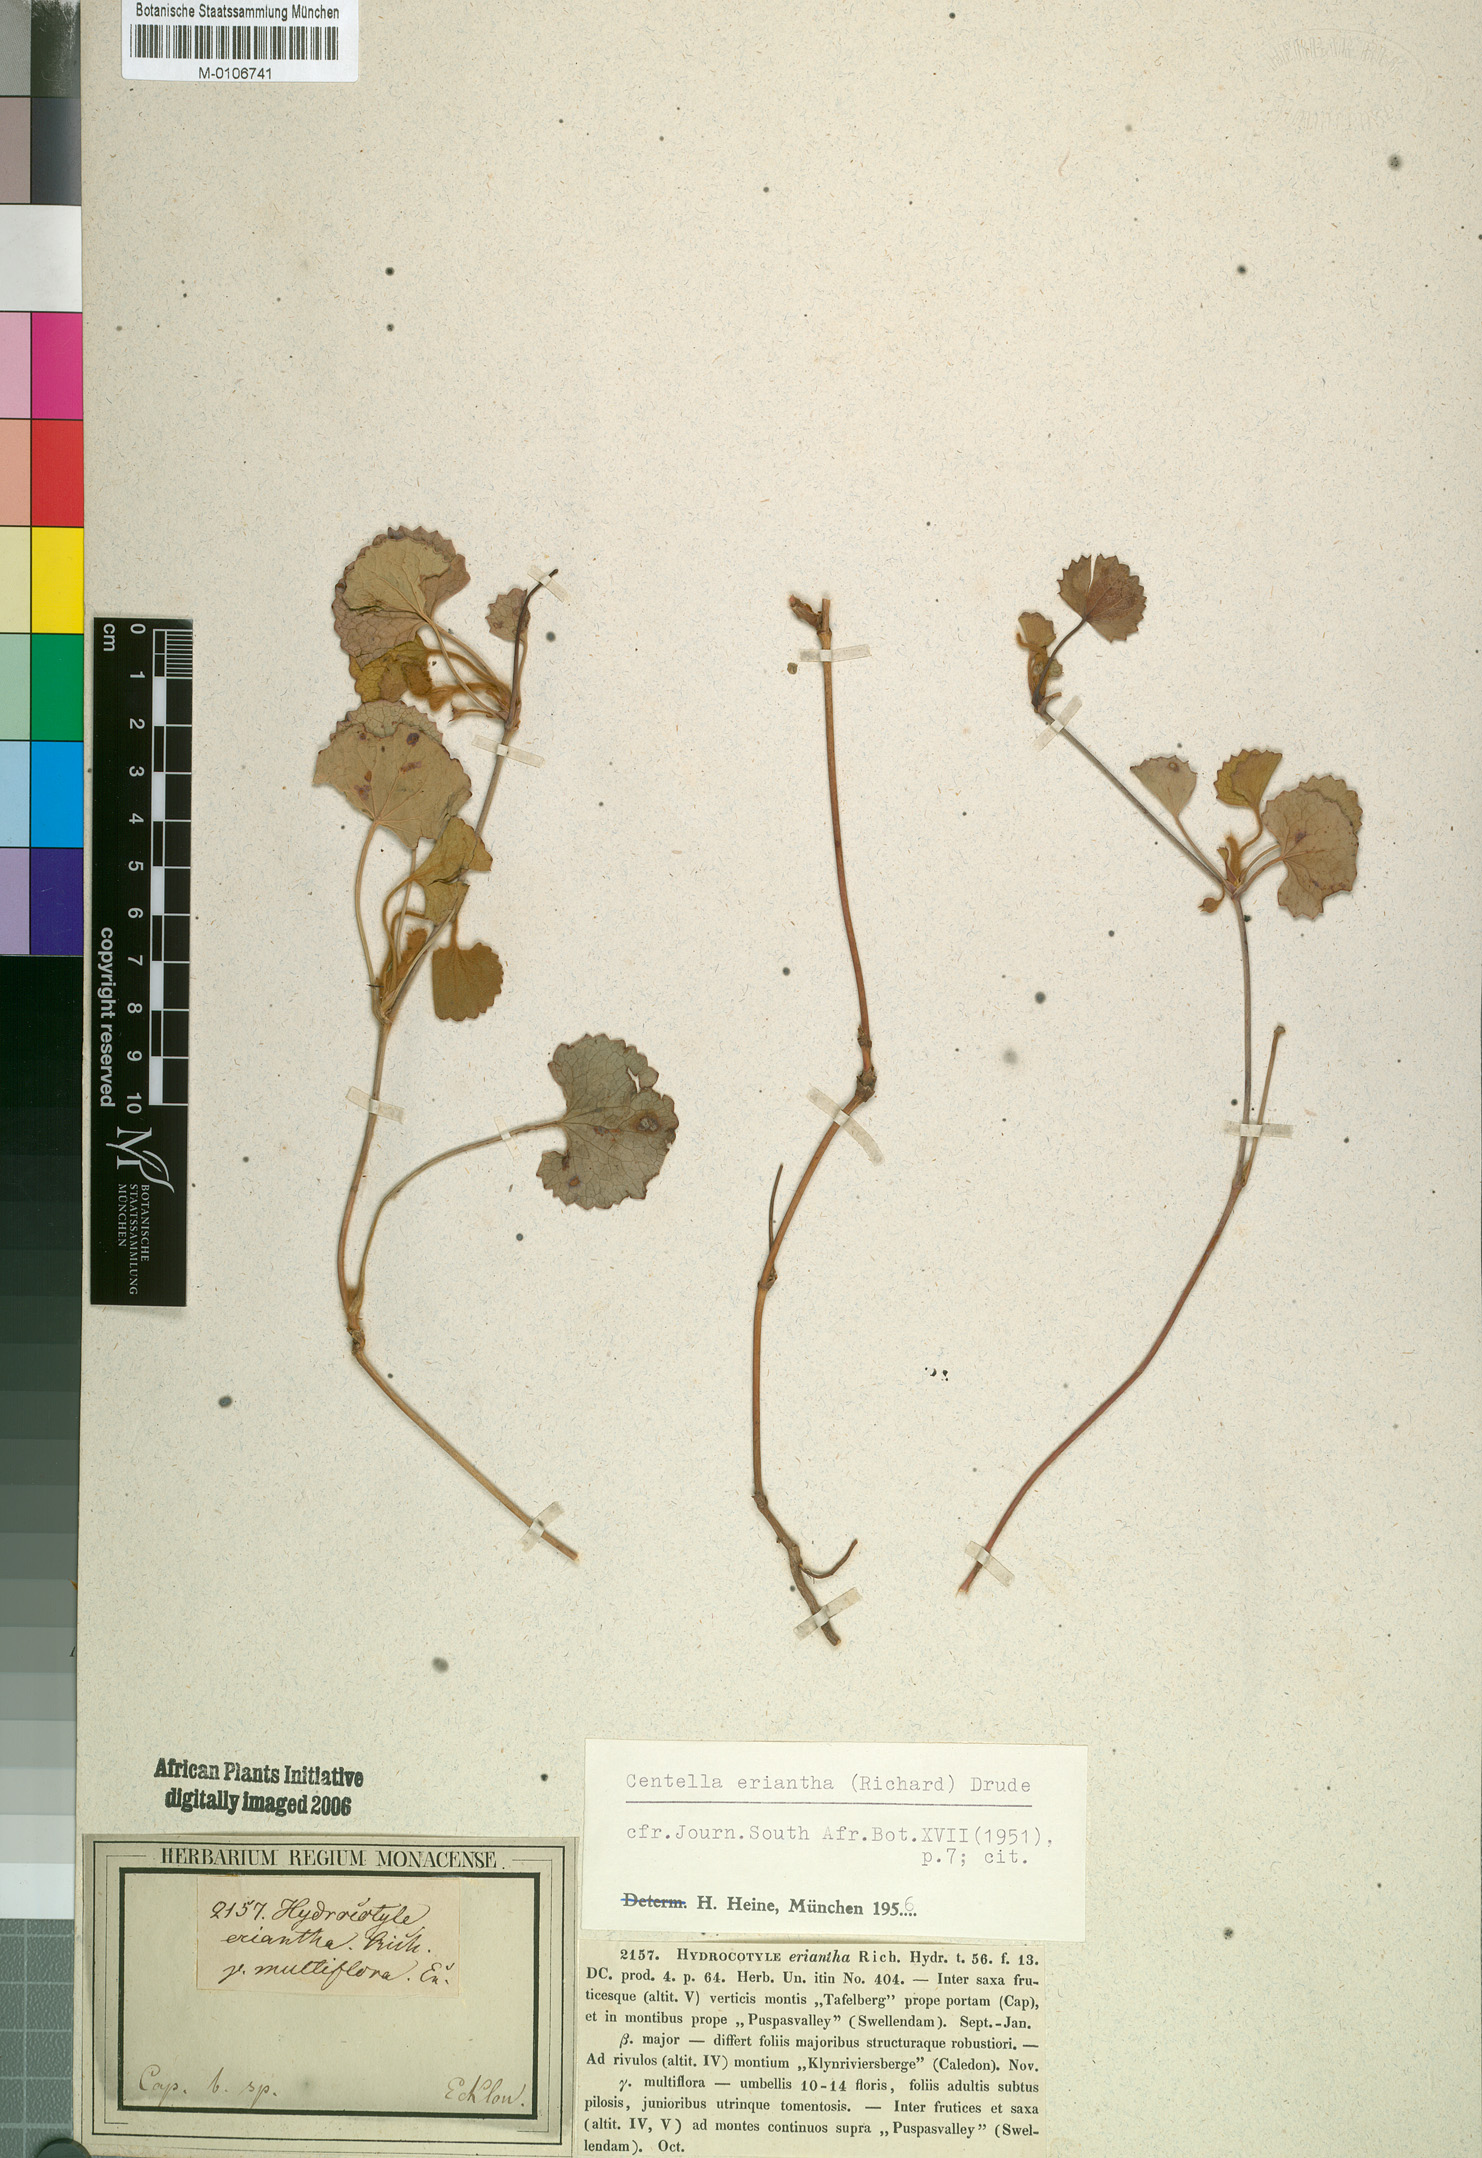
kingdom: Plantae
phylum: Tracheophyta
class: Magnoliopsida
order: Apiales
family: Apiaceae
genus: Centella
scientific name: Centella eriantha
